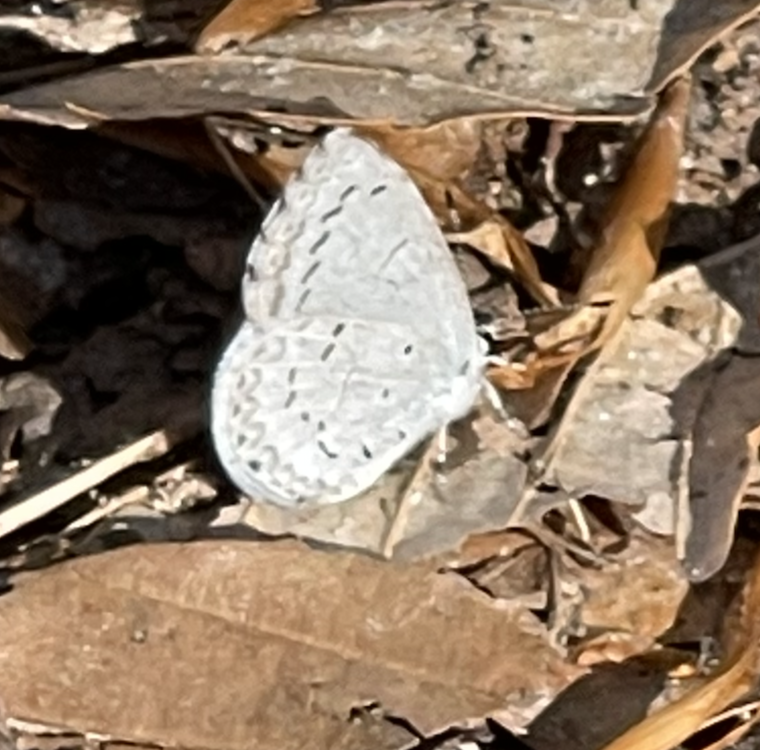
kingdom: Animalia
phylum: Arthropoda
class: Insecta
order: Lepidoptera
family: Lycaenidae
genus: Celastrina
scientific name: Celastrina ladon
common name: Spring Azure
